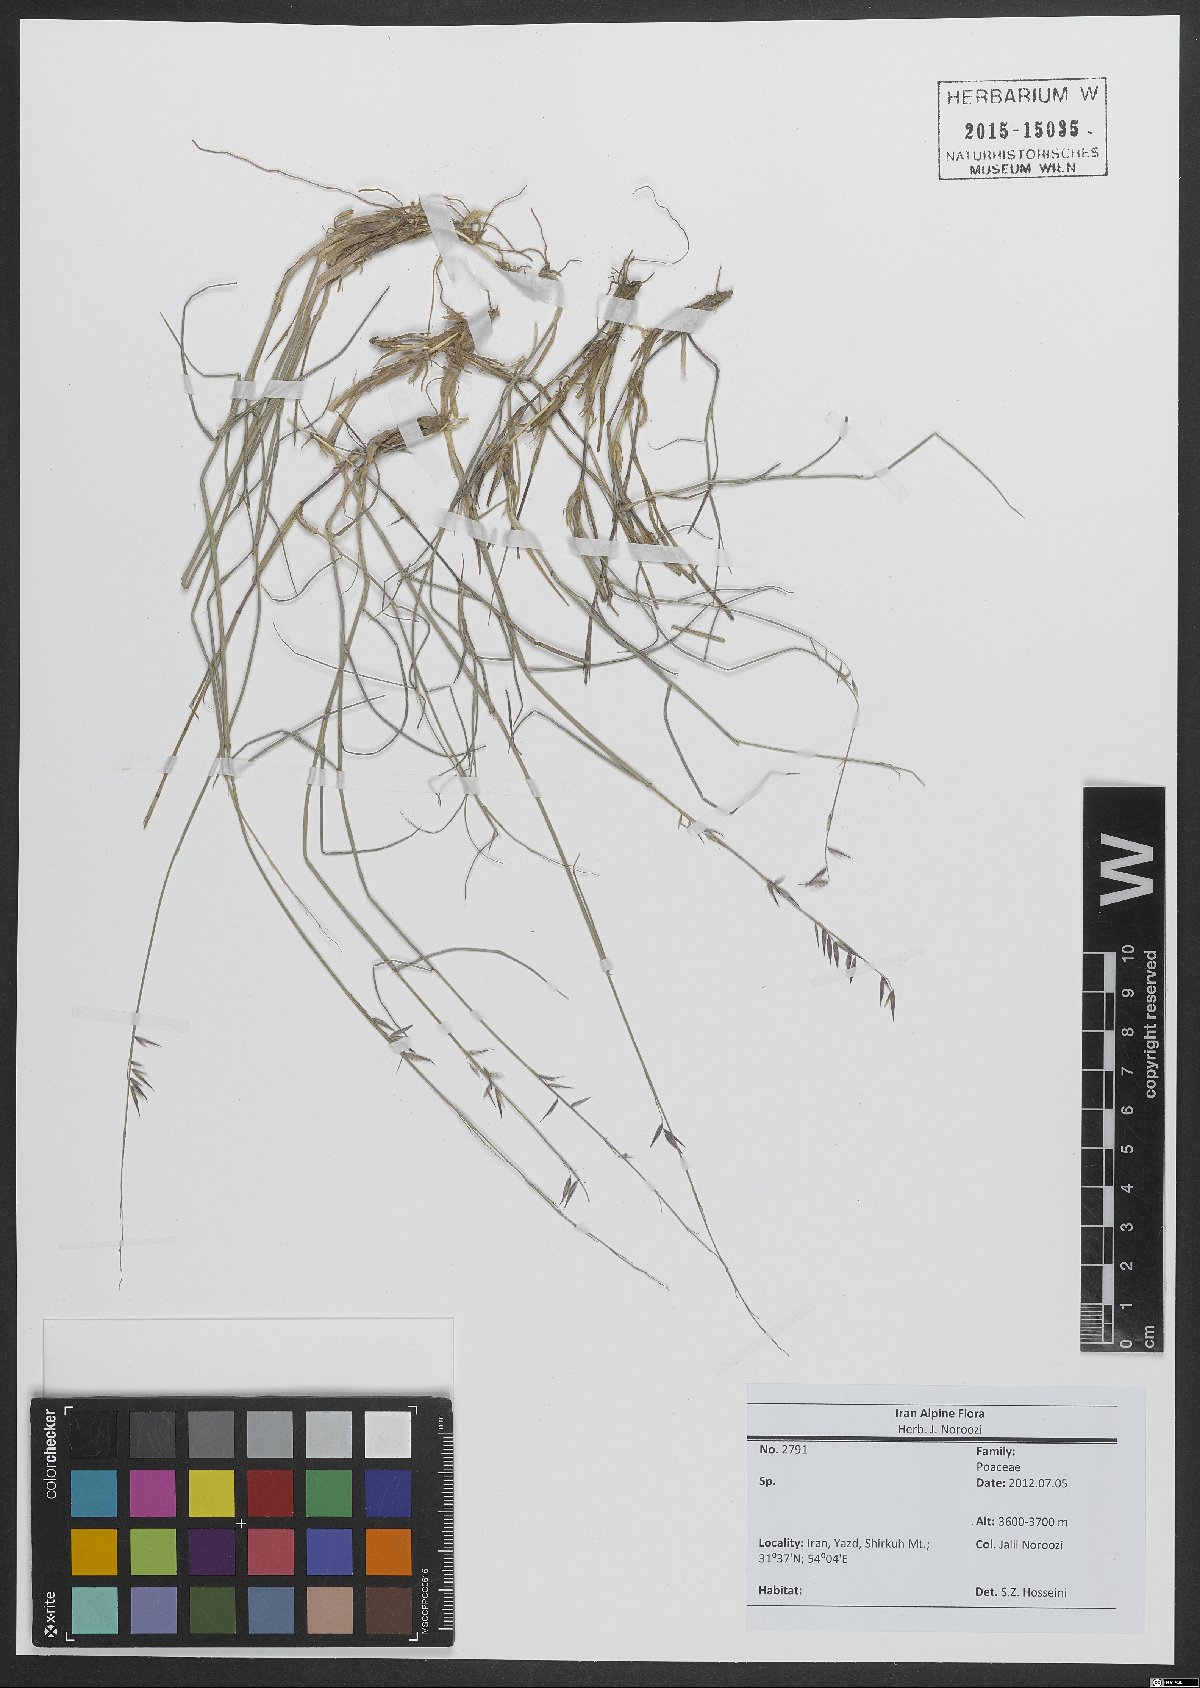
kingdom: Plantae
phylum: Tracheophyta
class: Liliopsida
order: Poales
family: Poaceae
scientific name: Poaceae
